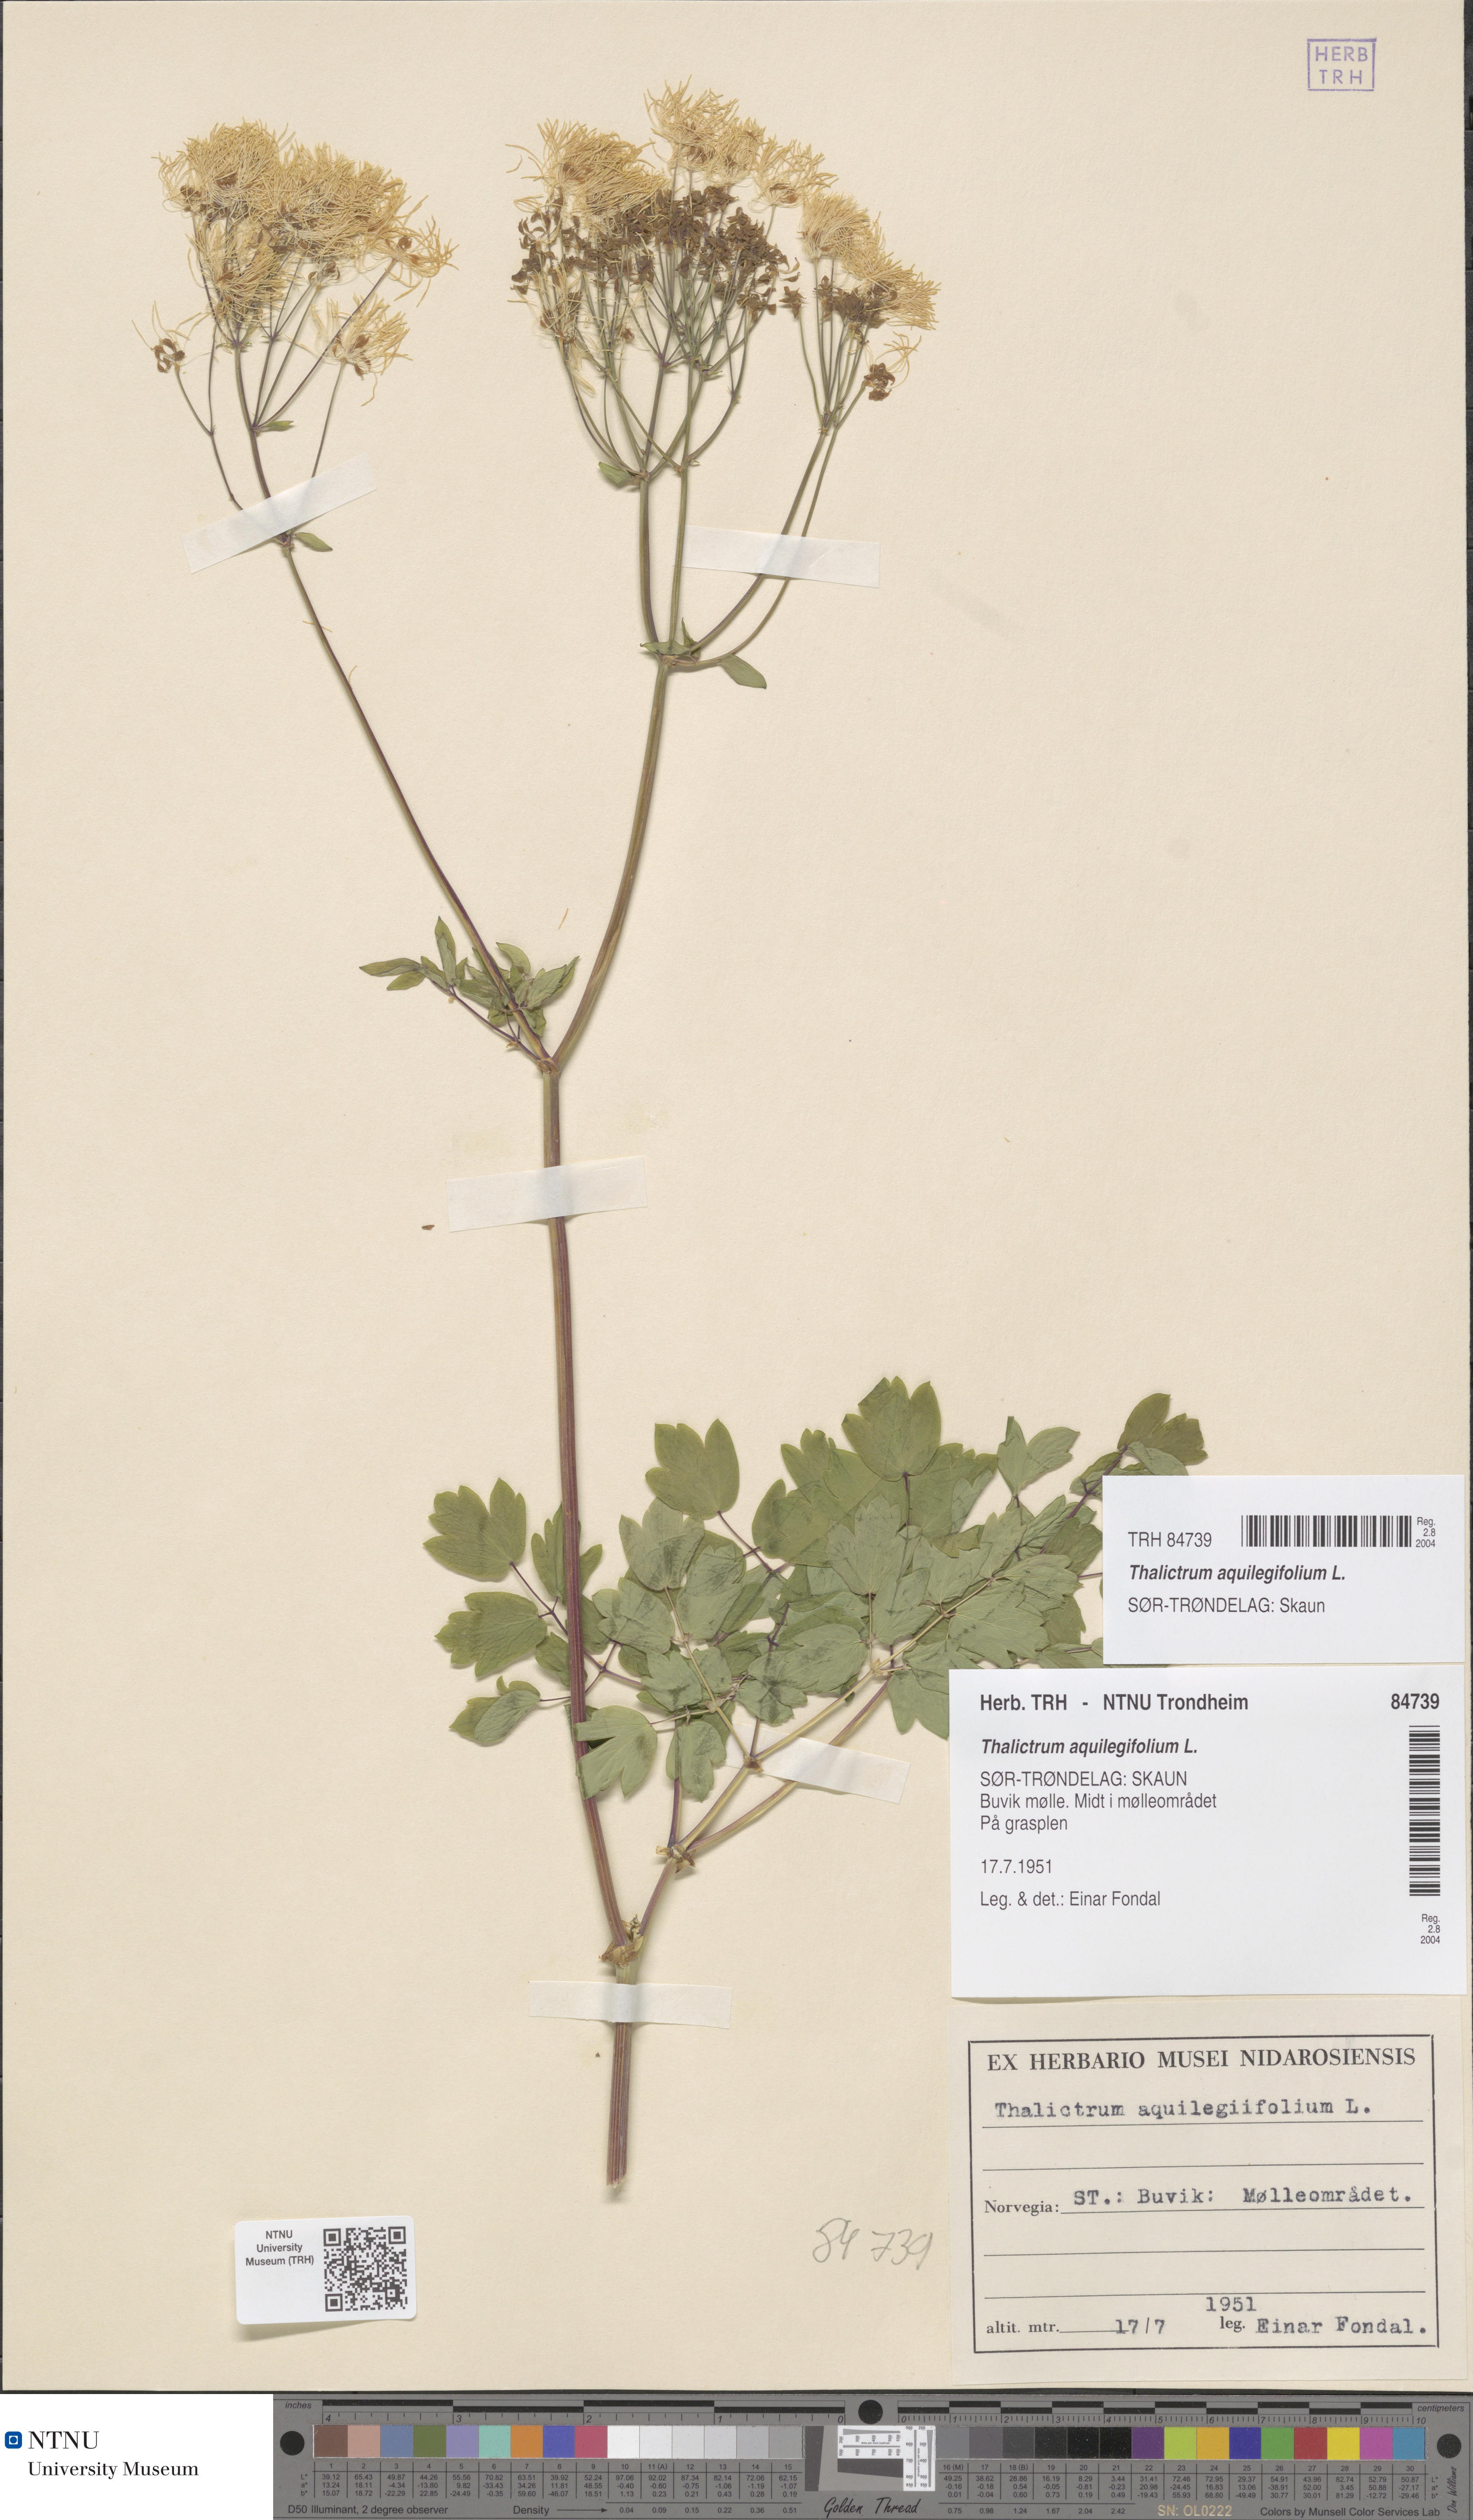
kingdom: Plantae
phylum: Tracheophyta
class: Magnoliopsida
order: Ranunculales
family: Ranunculaceae
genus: Thalictrum
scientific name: Thalictrum aquilegiifolium
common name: French meadow-rue
